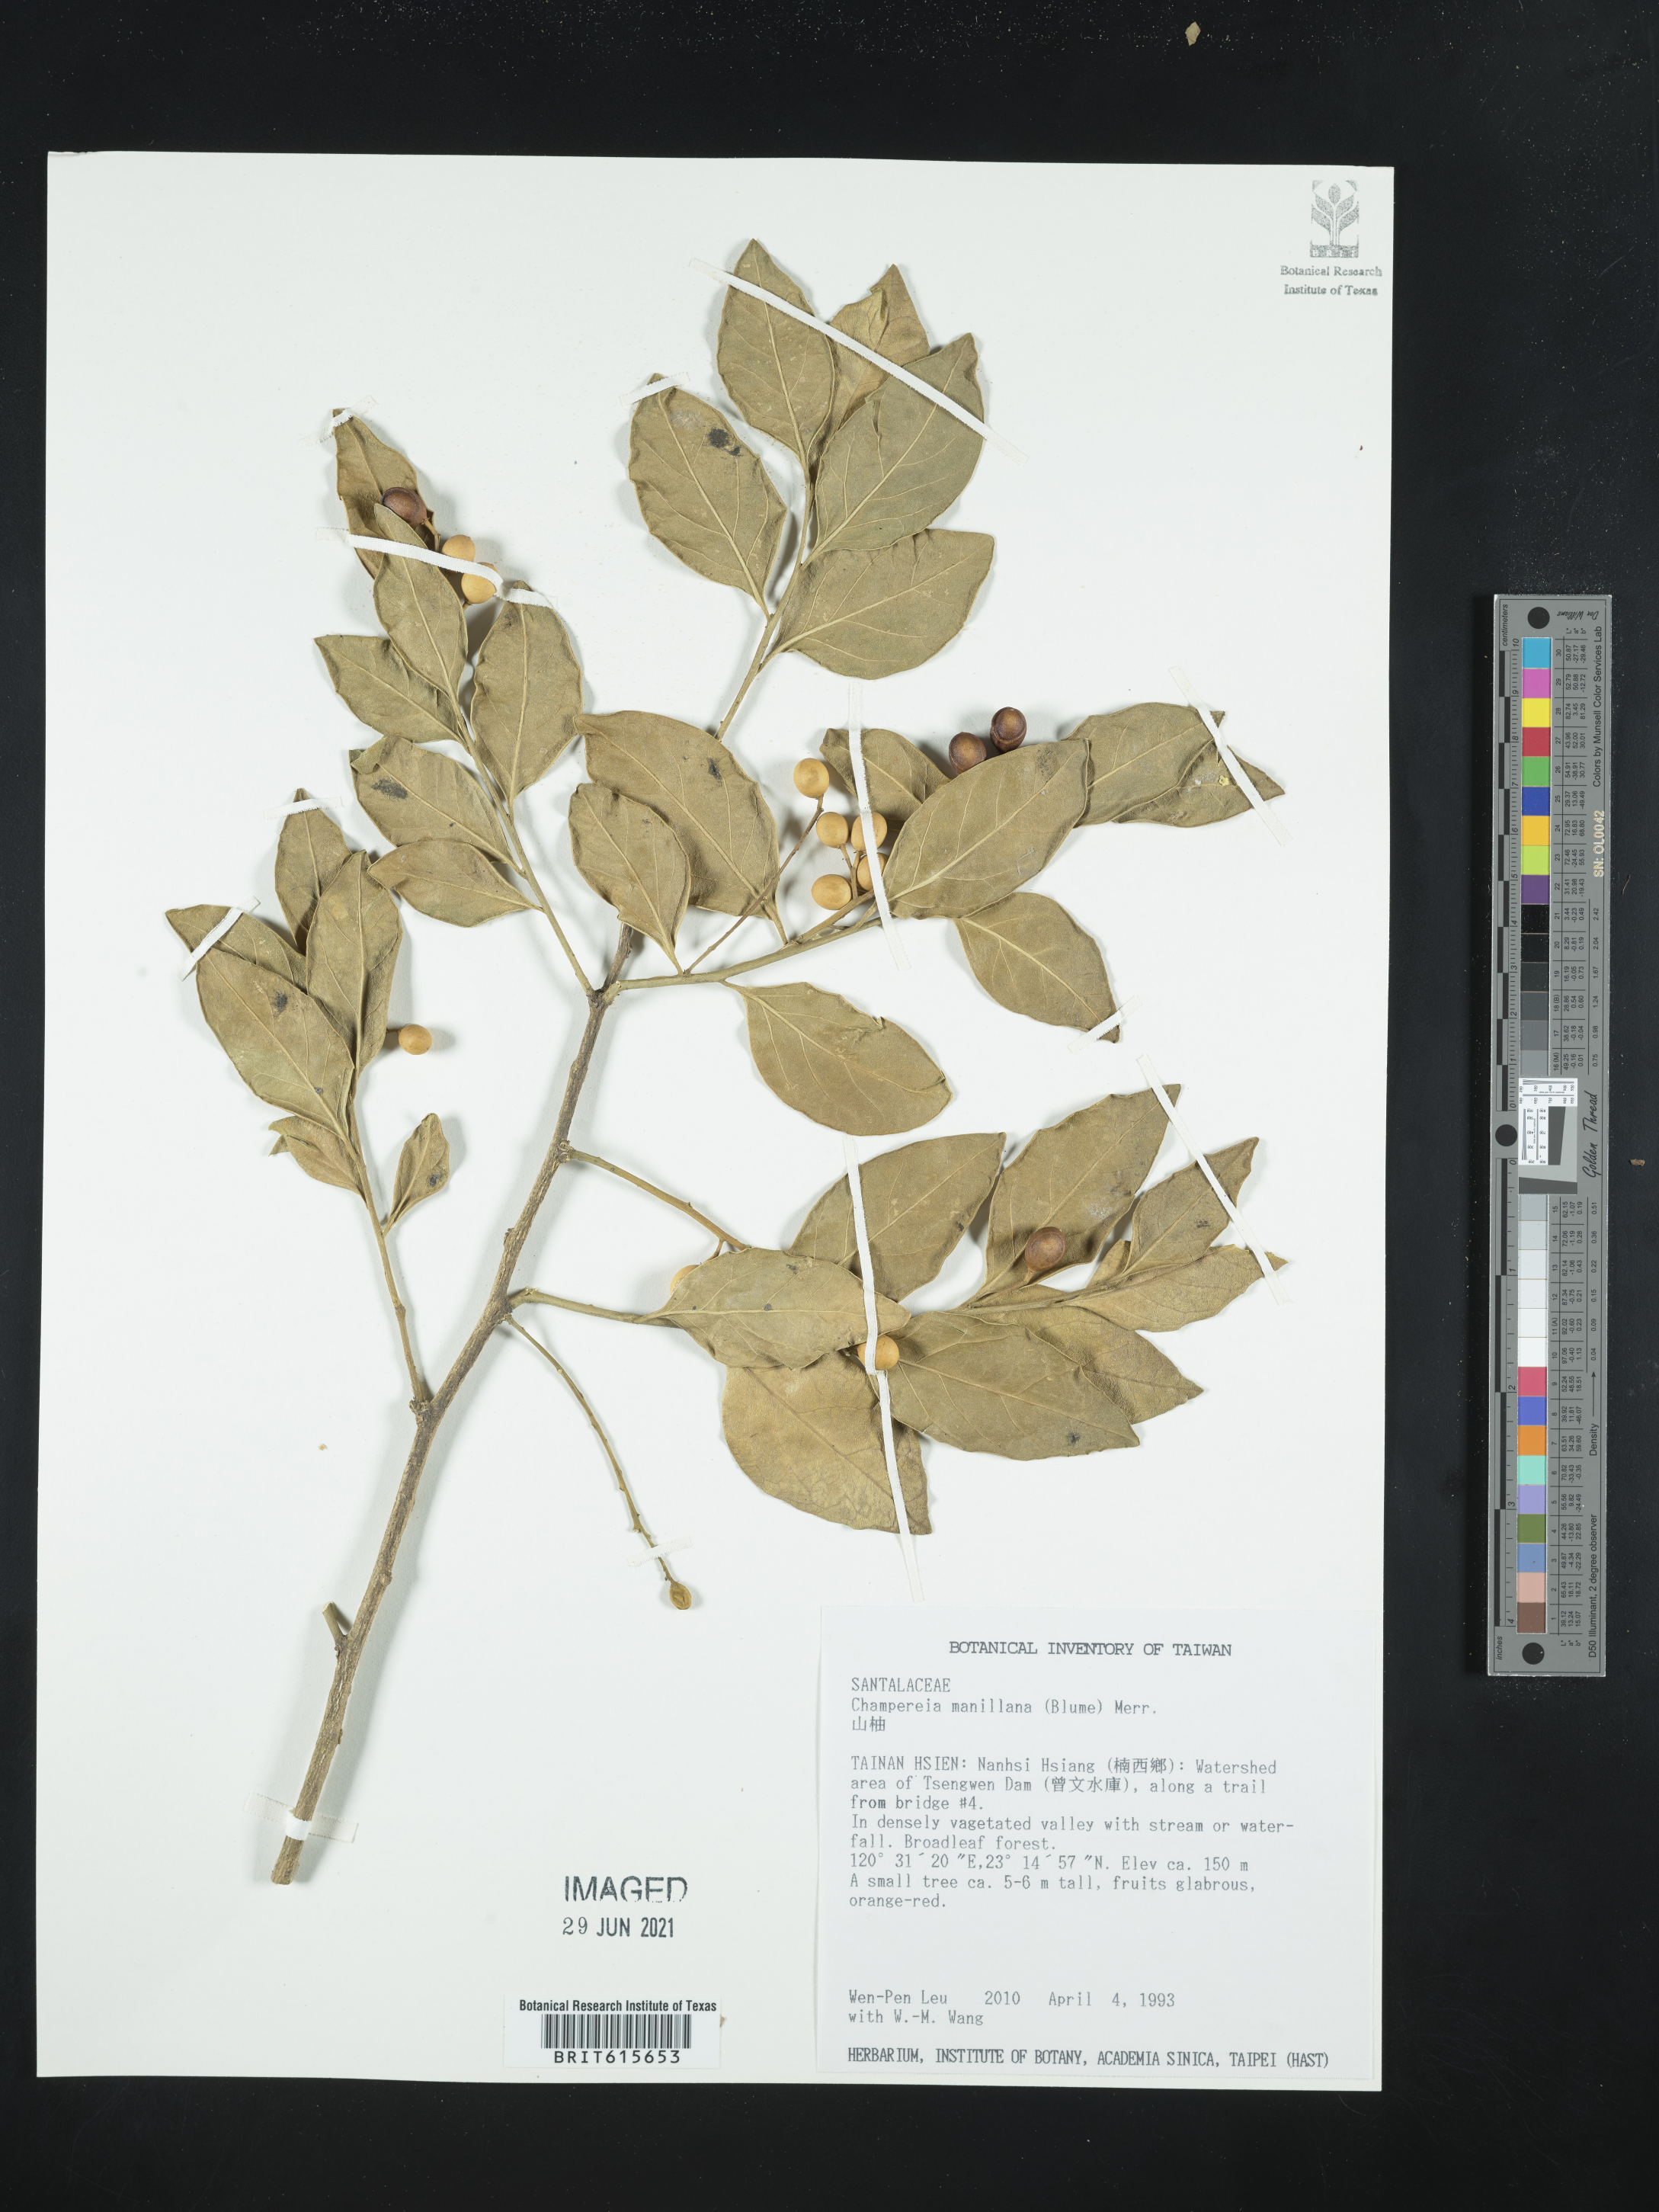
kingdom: Plantae
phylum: Tracheophyta
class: Magnoliopsida
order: Santalales
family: Opiliaceae
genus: Champereia
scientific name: Champereia manillana
